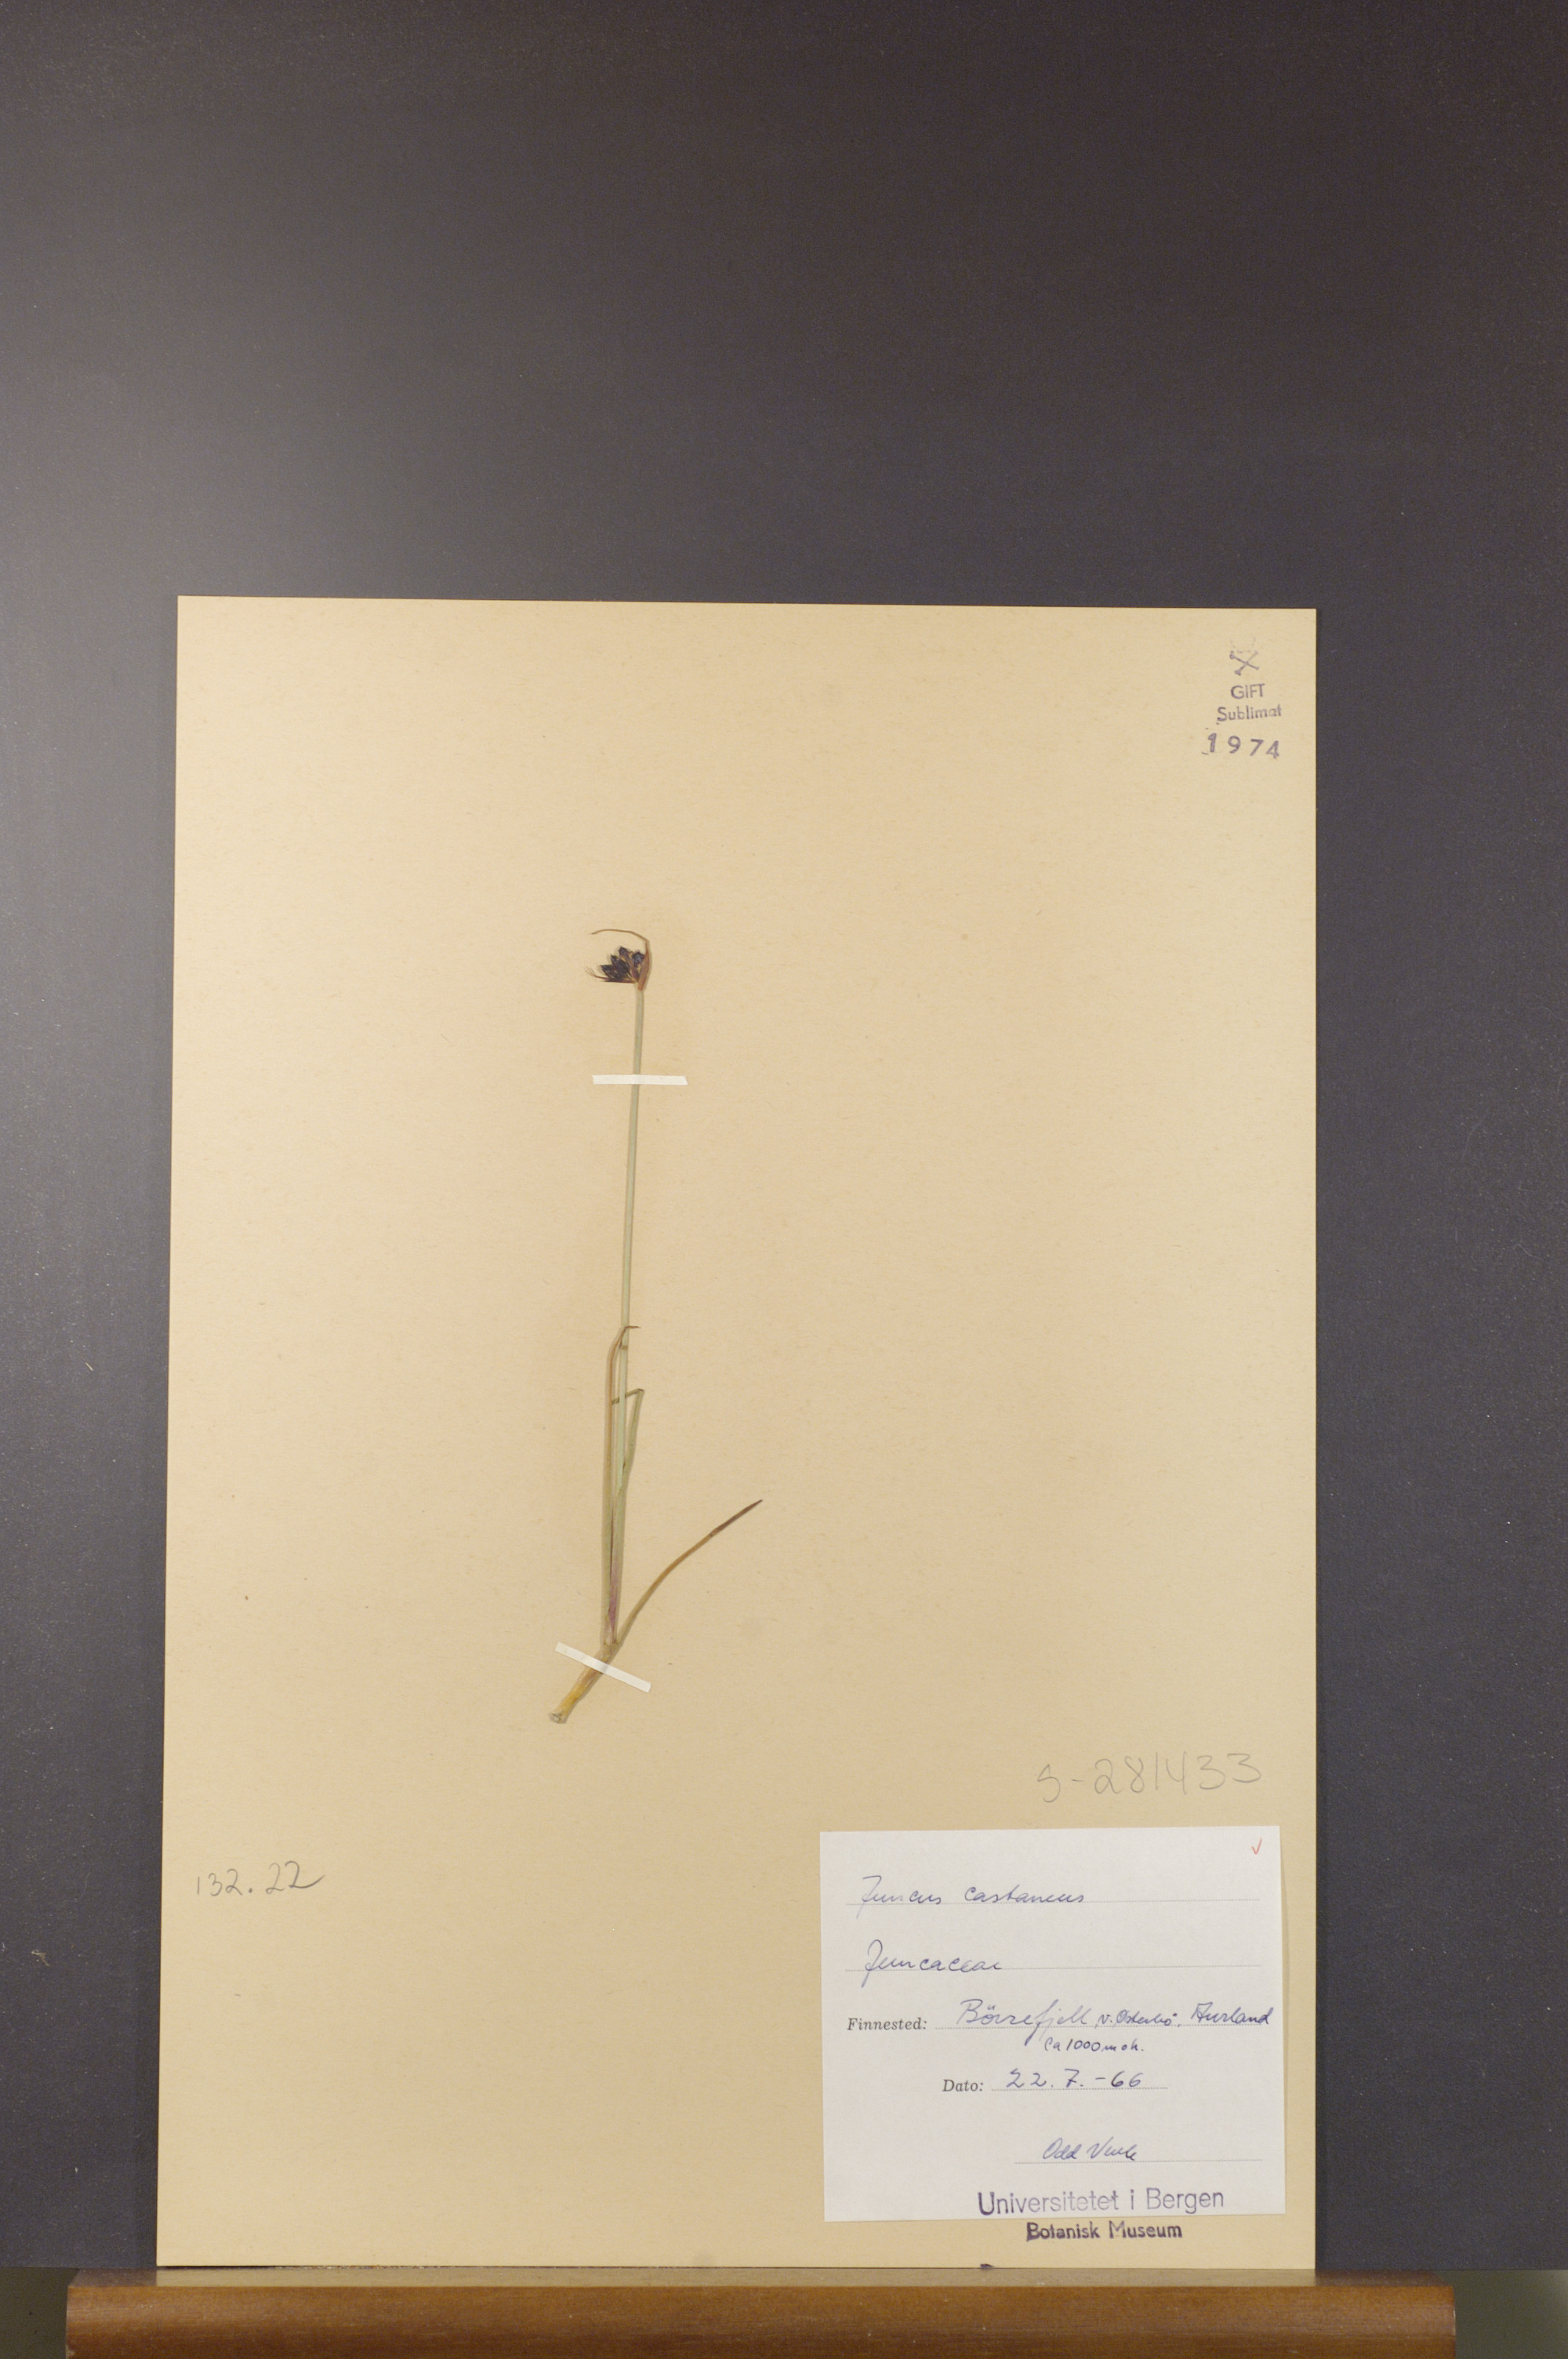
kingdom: Plantae
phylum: Tracheophyta
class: Liliopsida
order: Poales
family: Juncaceae
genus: Juncus
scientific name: Juncus castaneus
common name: Chestnut rush
